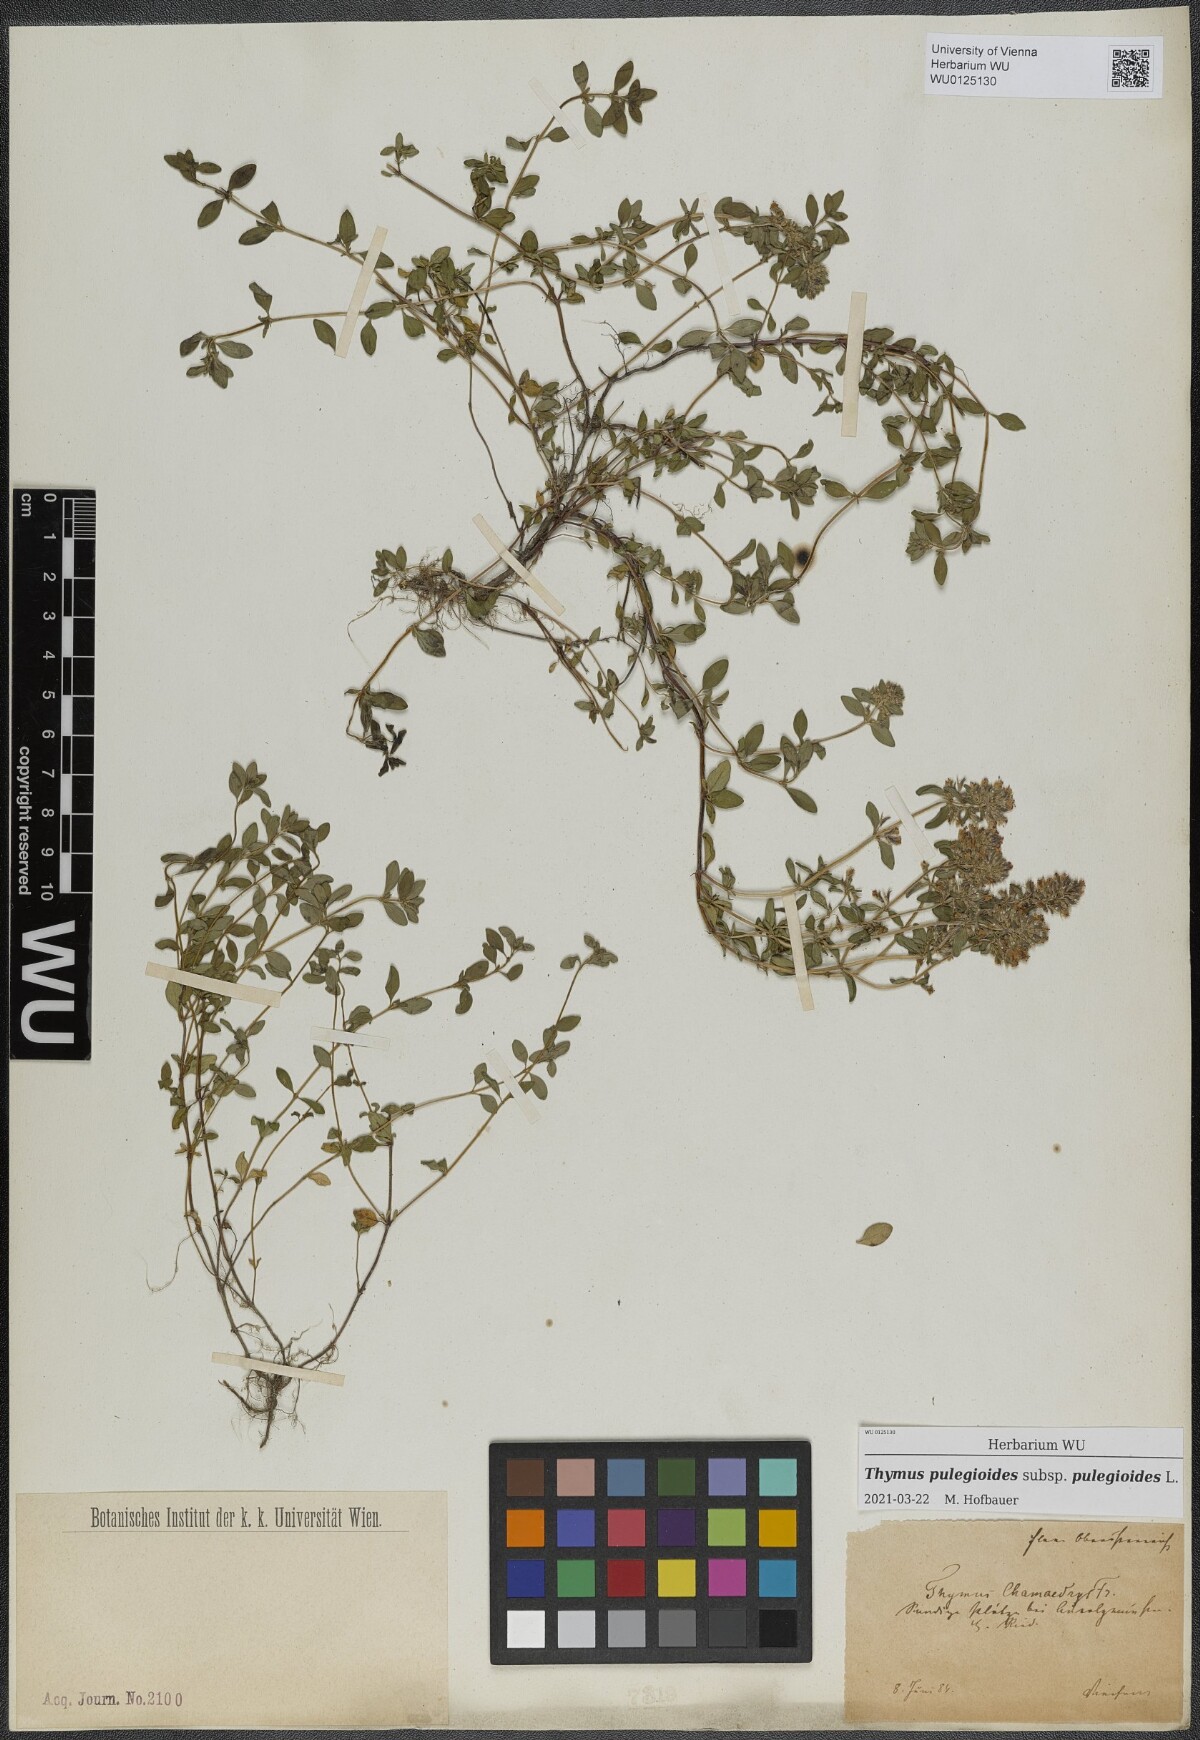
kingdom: Plantae
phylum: Tracheophyta
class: Magnoliopsida
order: Lamiales
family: Lamiaceae
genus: Thymus
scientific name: Thymus pulegioides
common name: Large thyme
